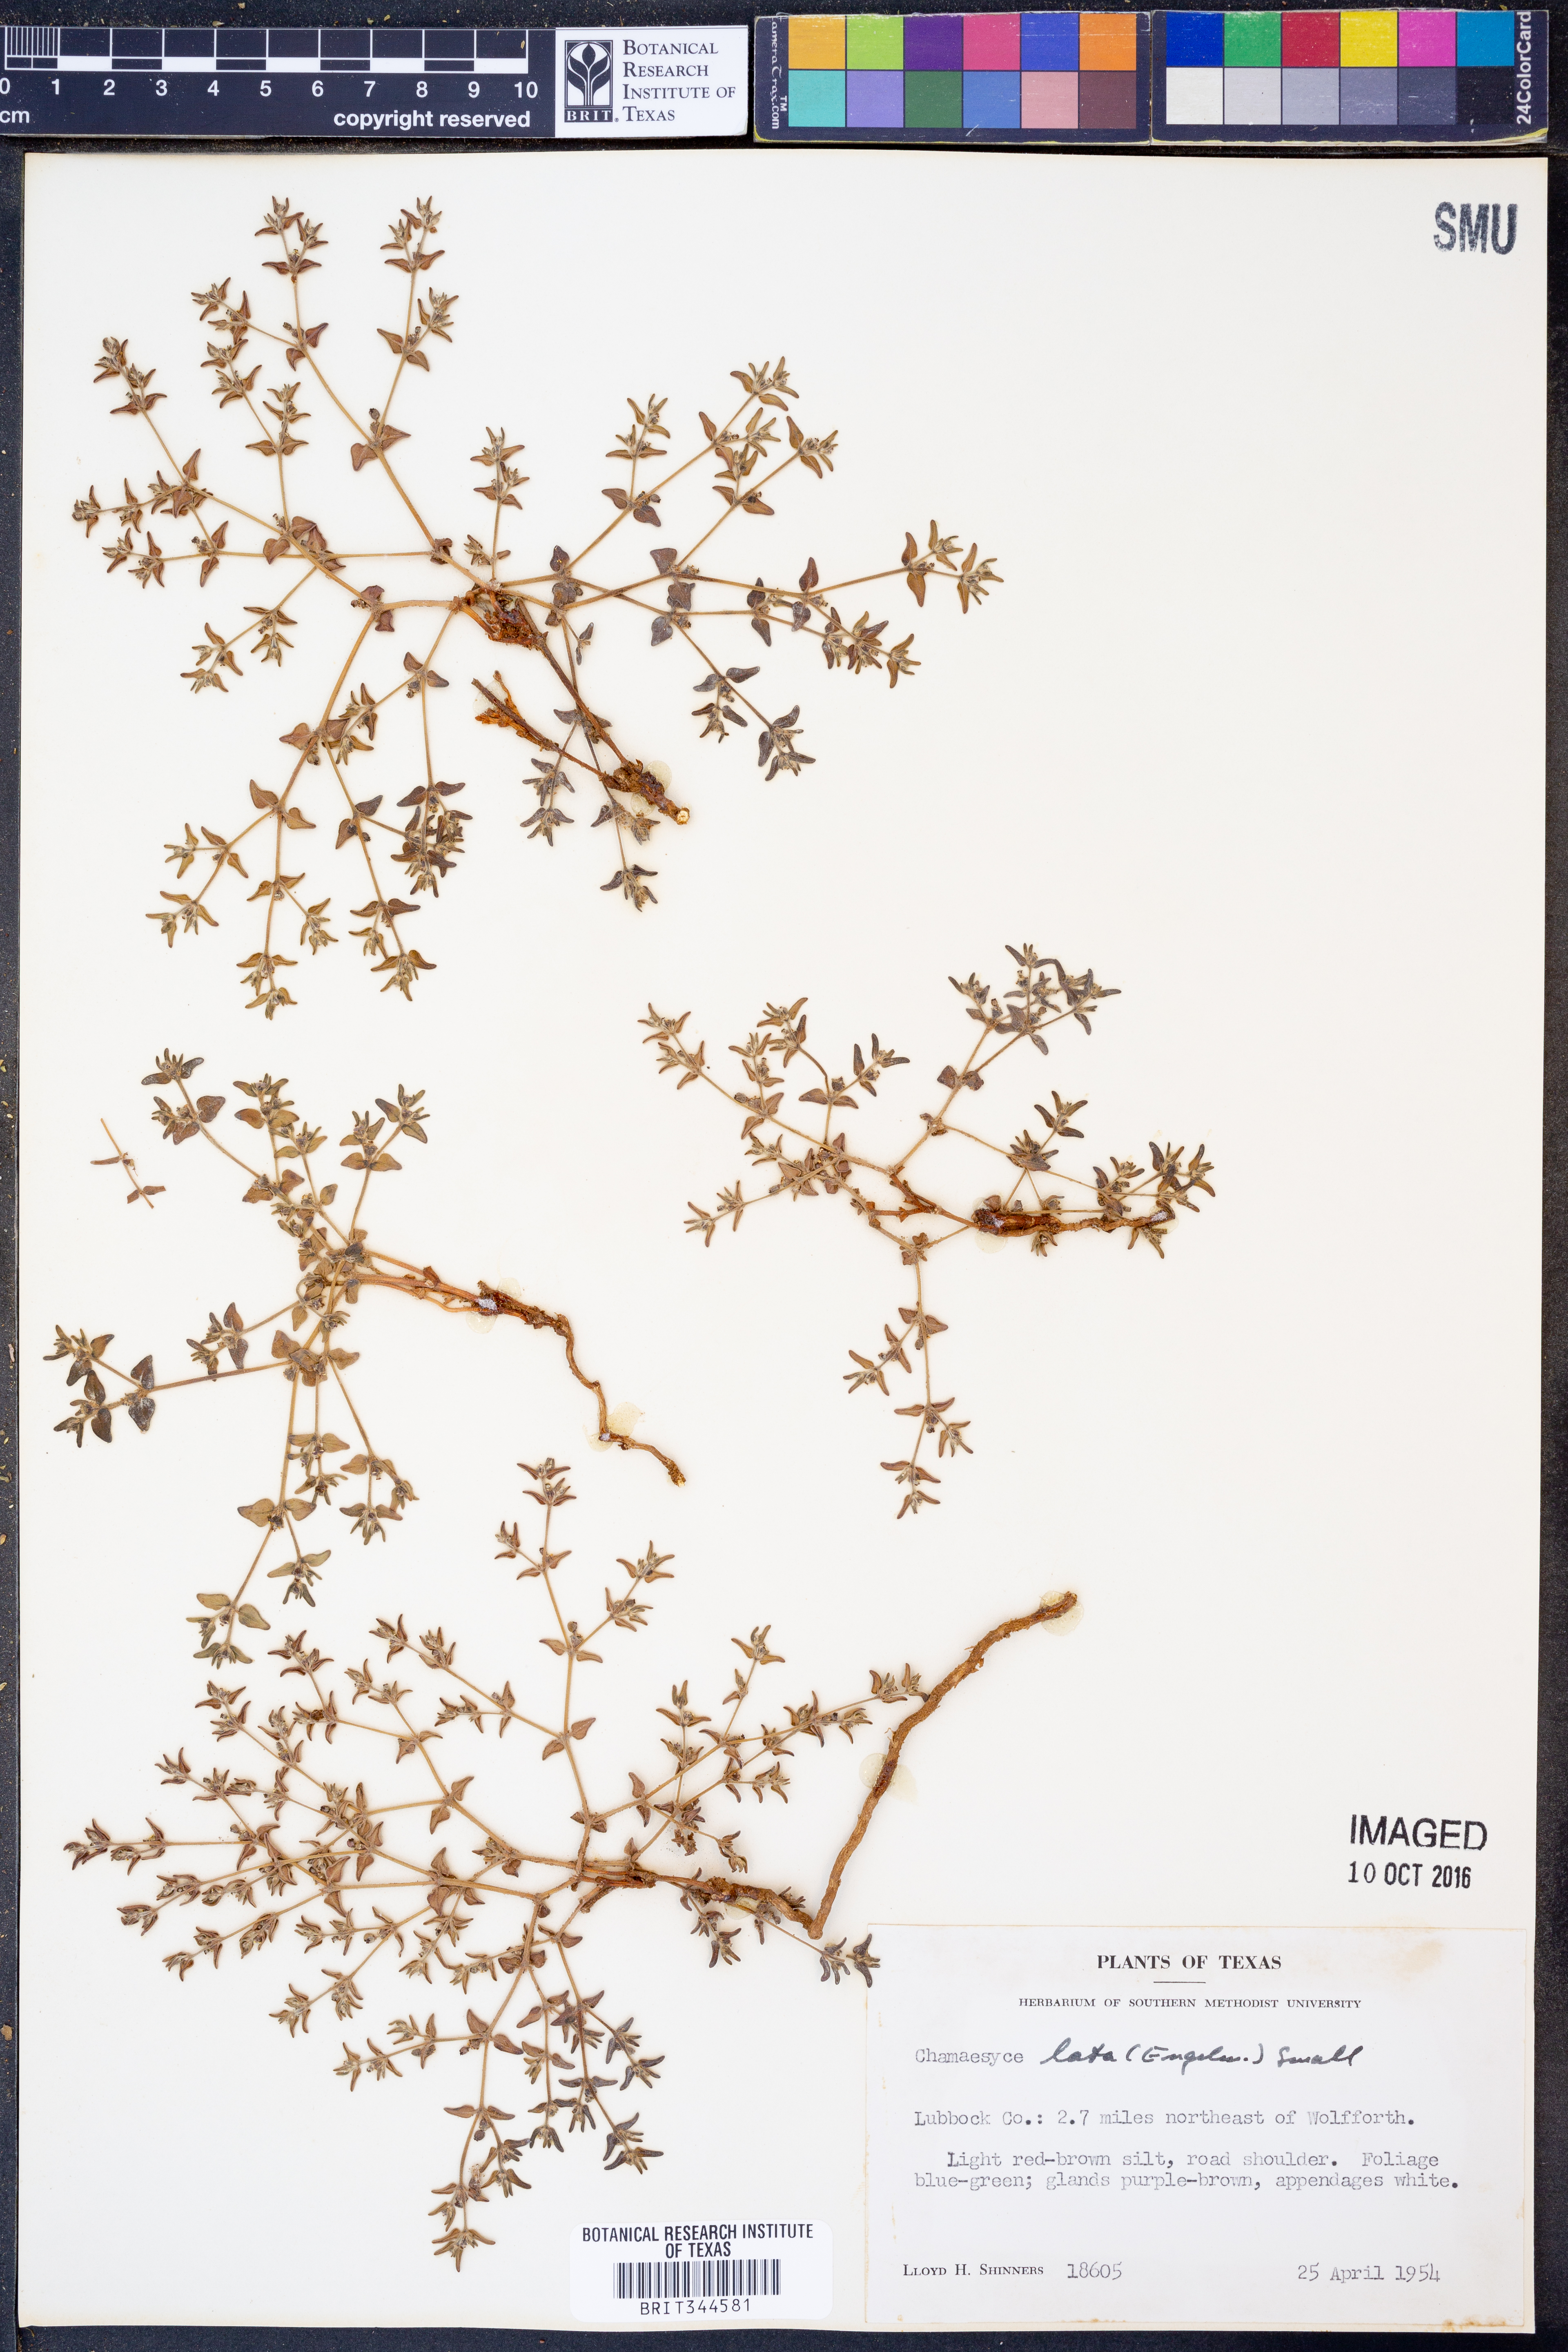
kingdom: Plantae
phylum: Tracheophyta
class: Magnoliopsida
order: Malpighiales
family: Euphorbiaceae
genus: Euphorbia
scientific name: Euphorbia lata
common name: Hoary euphorbia
